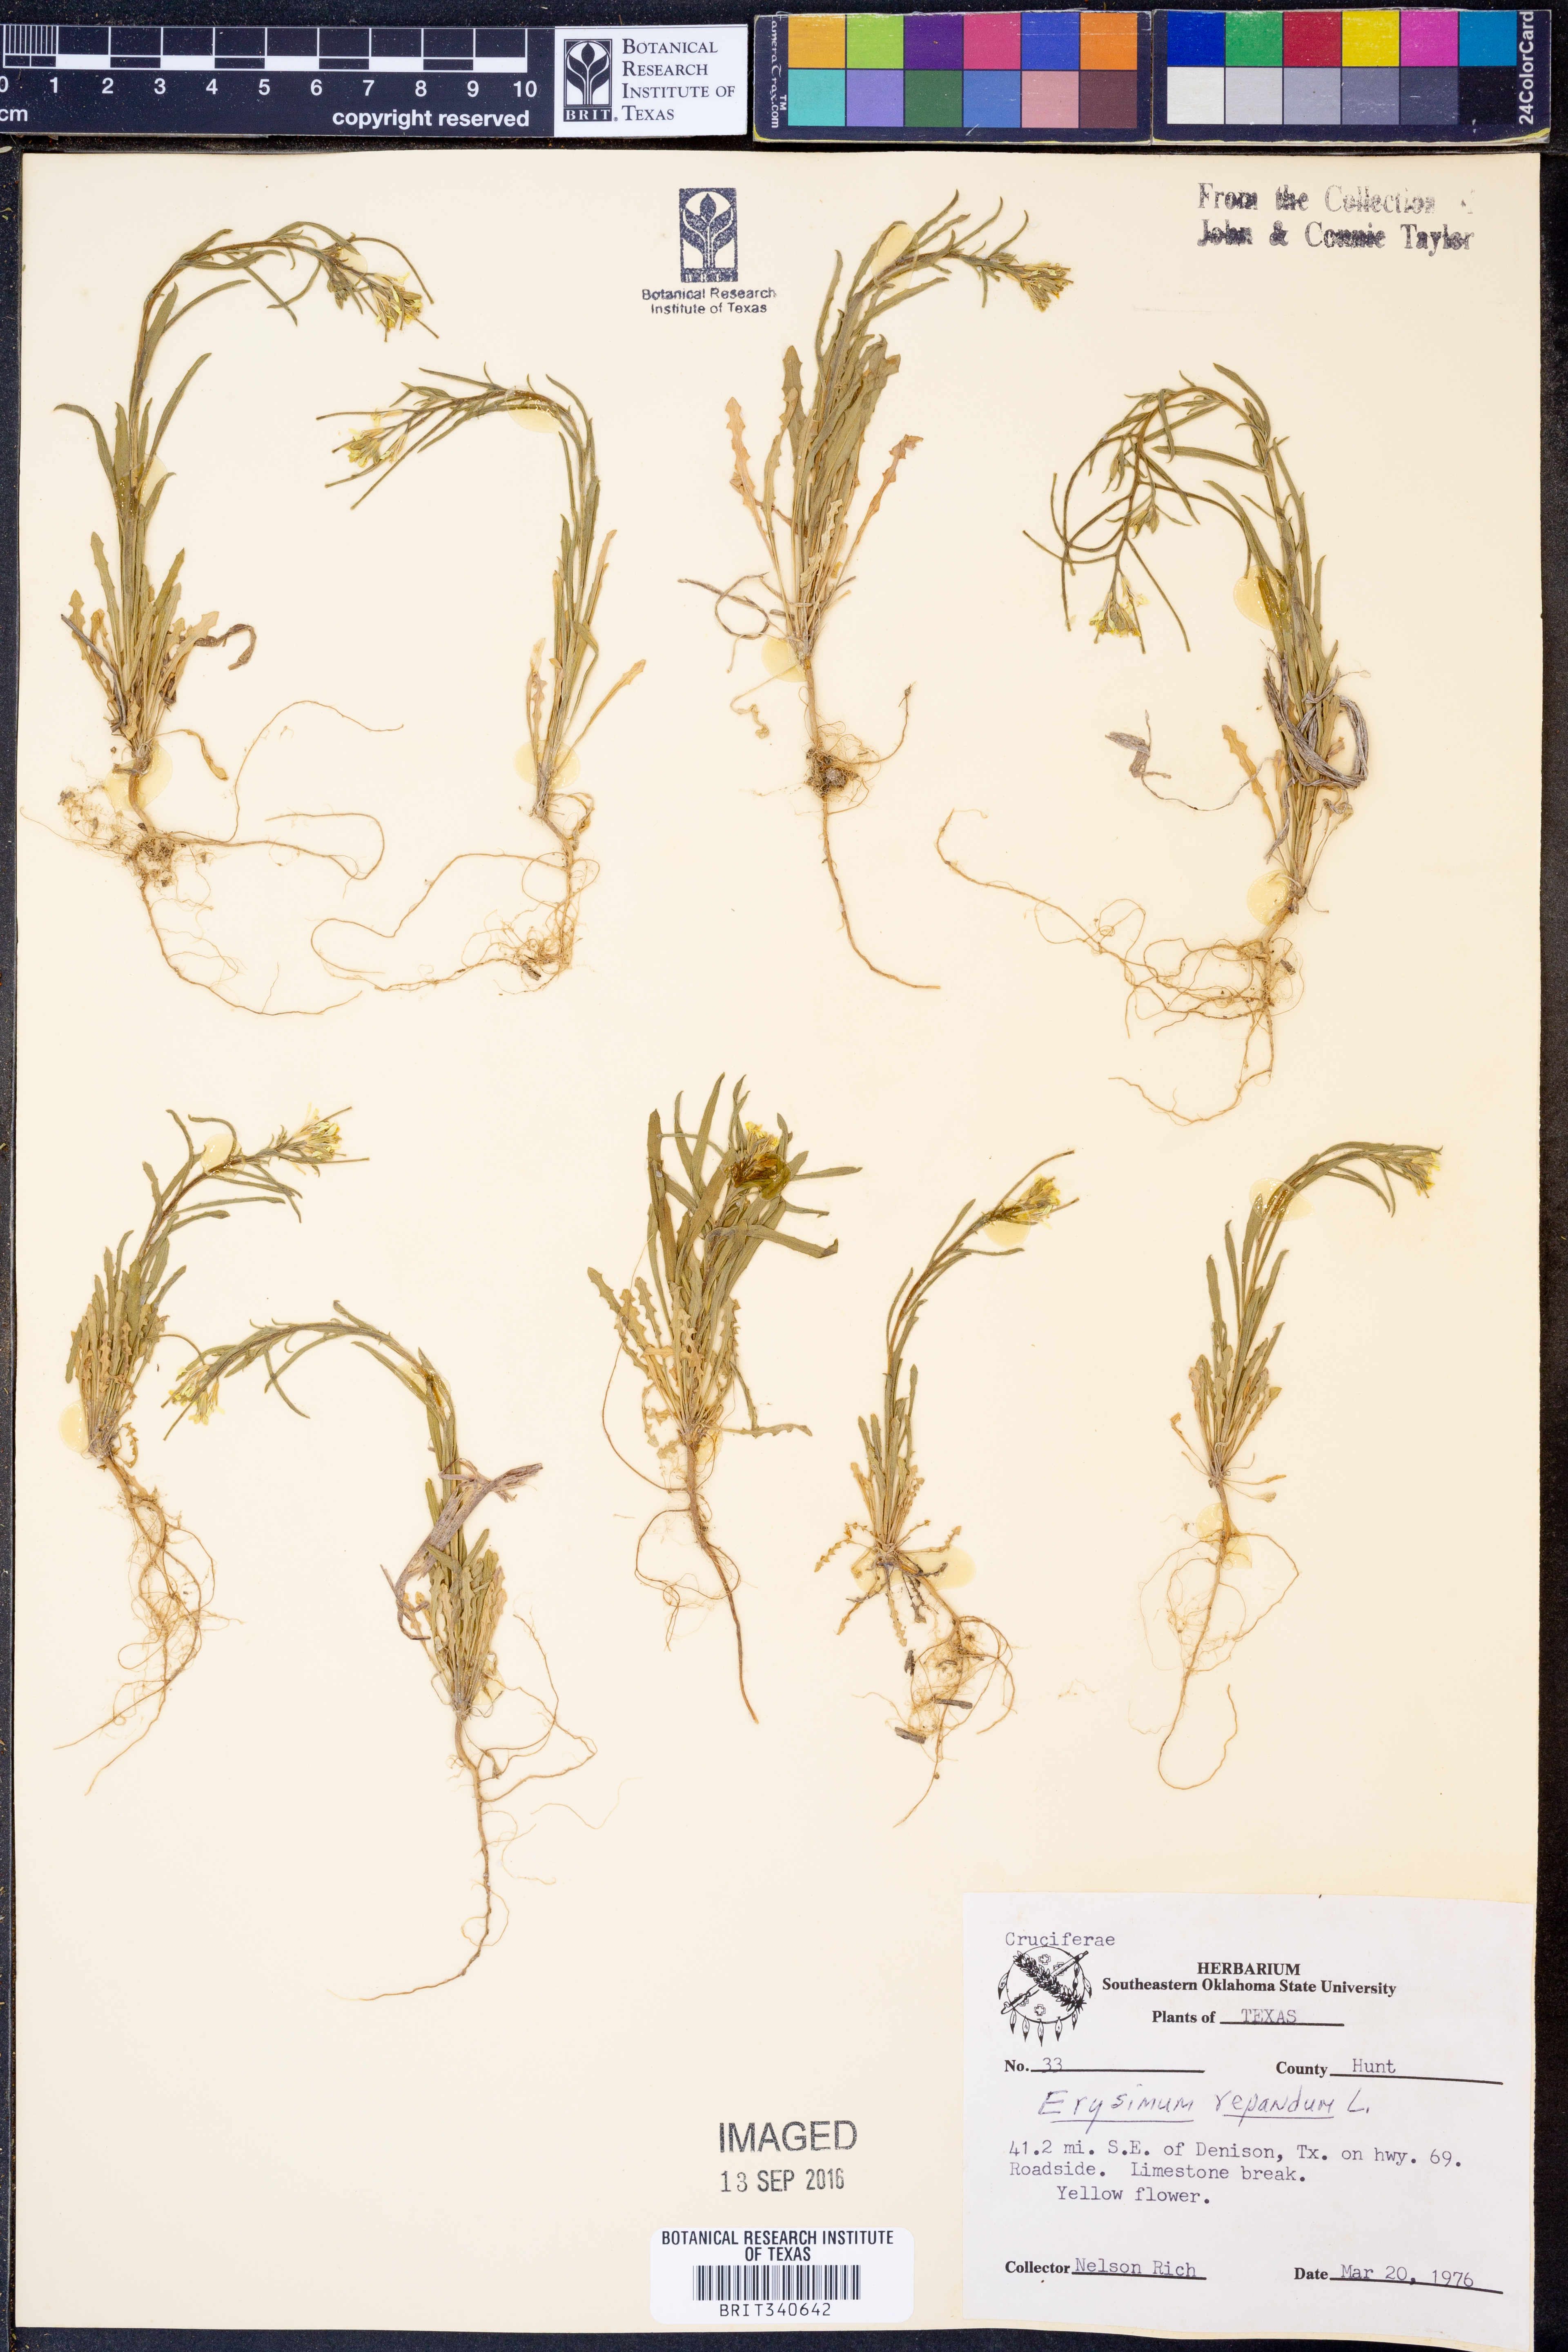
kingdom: Plantae
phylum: Tracheophyta
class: Magnoliopsida
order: Brassicales
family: Brassicaceae
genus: Erysimum
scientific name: Erysimum repandum
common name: Spreading wallflower
